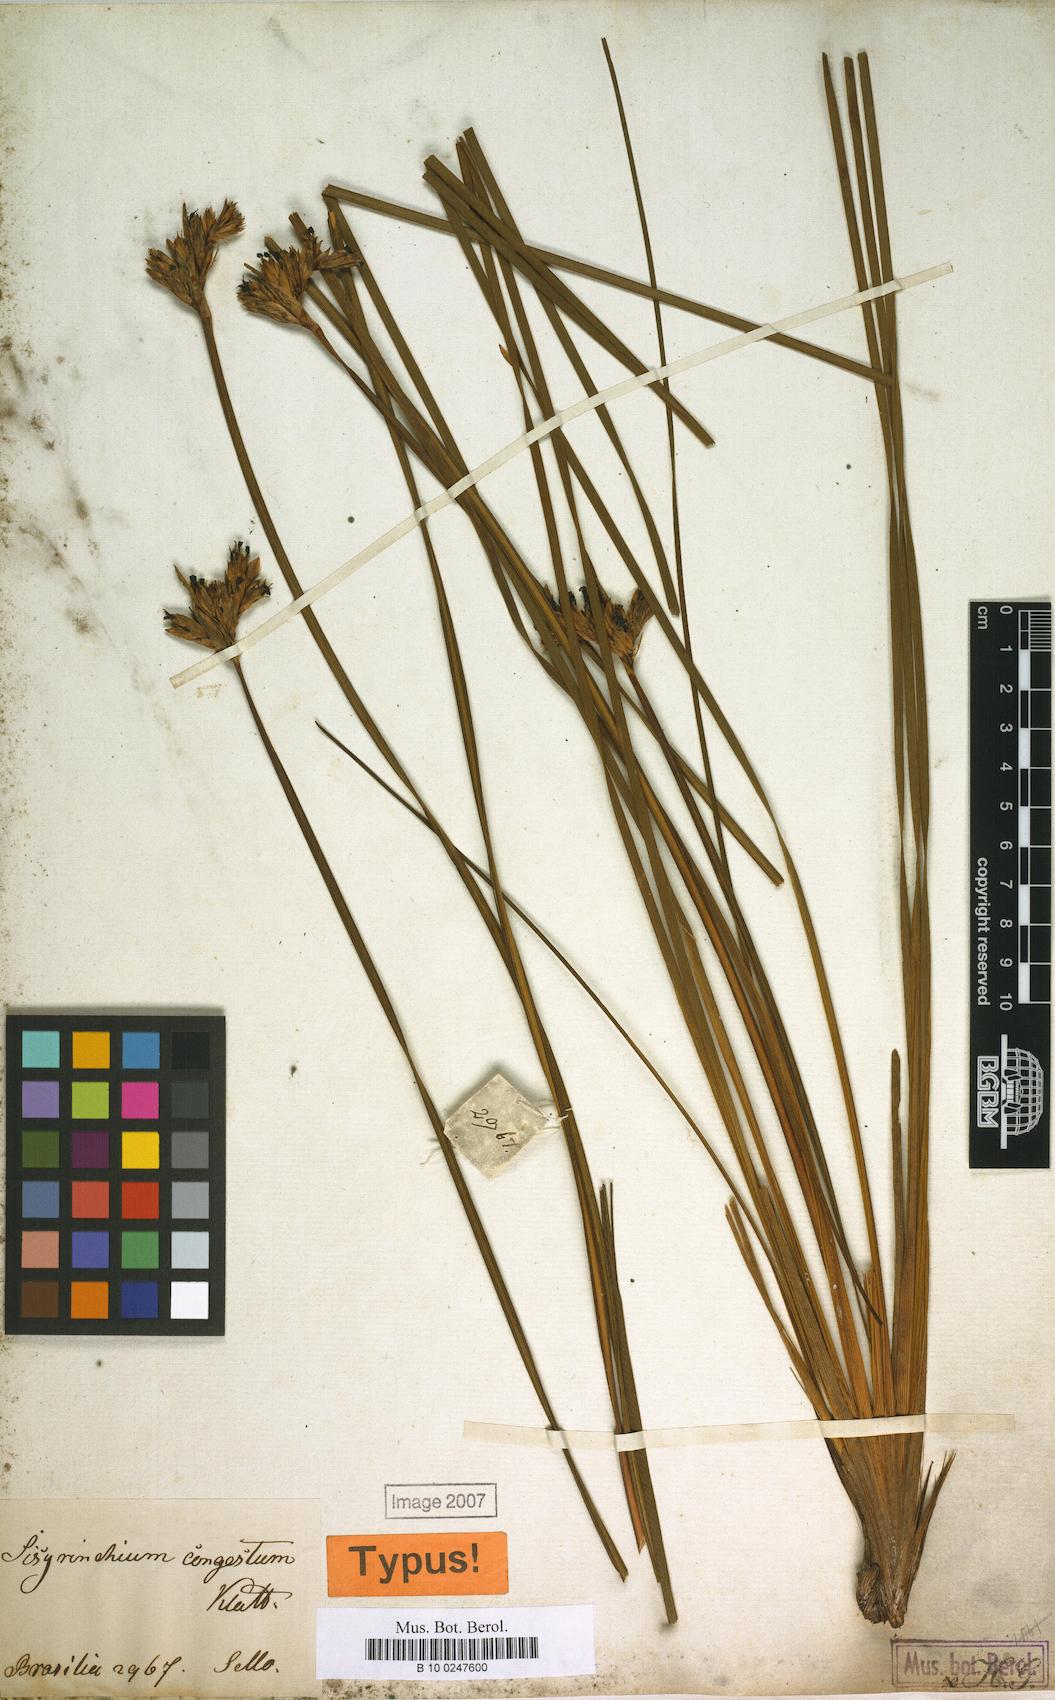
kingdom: Plantae
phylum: Tracheophyta
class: Liliopsida
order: Asparagales
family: Iridaceae
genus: Eleutherine
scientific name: Eleutherine bulbosa
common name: Lagrimas de la virgen
